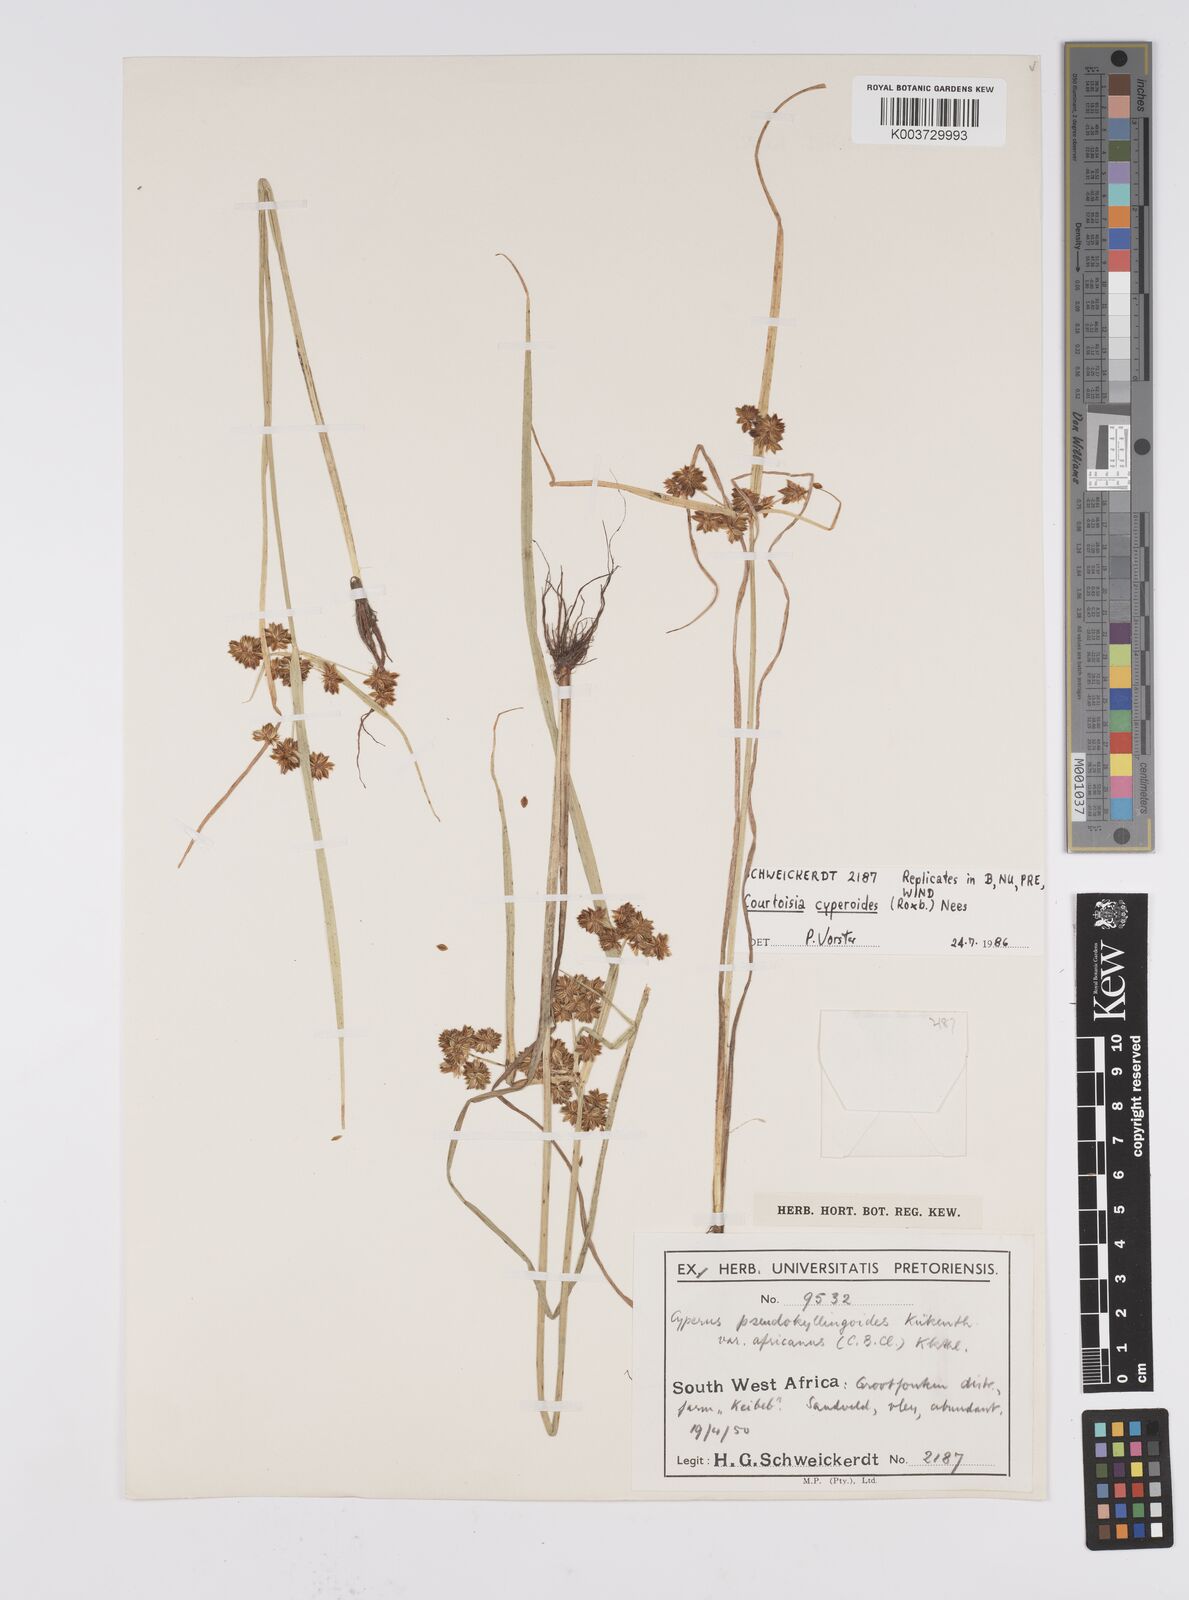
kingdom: Plantae
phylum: Tracheophyta
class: Liliopsida
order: Poales
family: Cyperaceae
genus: Cyperus
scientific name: Cyperus cyperoides
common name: Pacific island flat sedge
